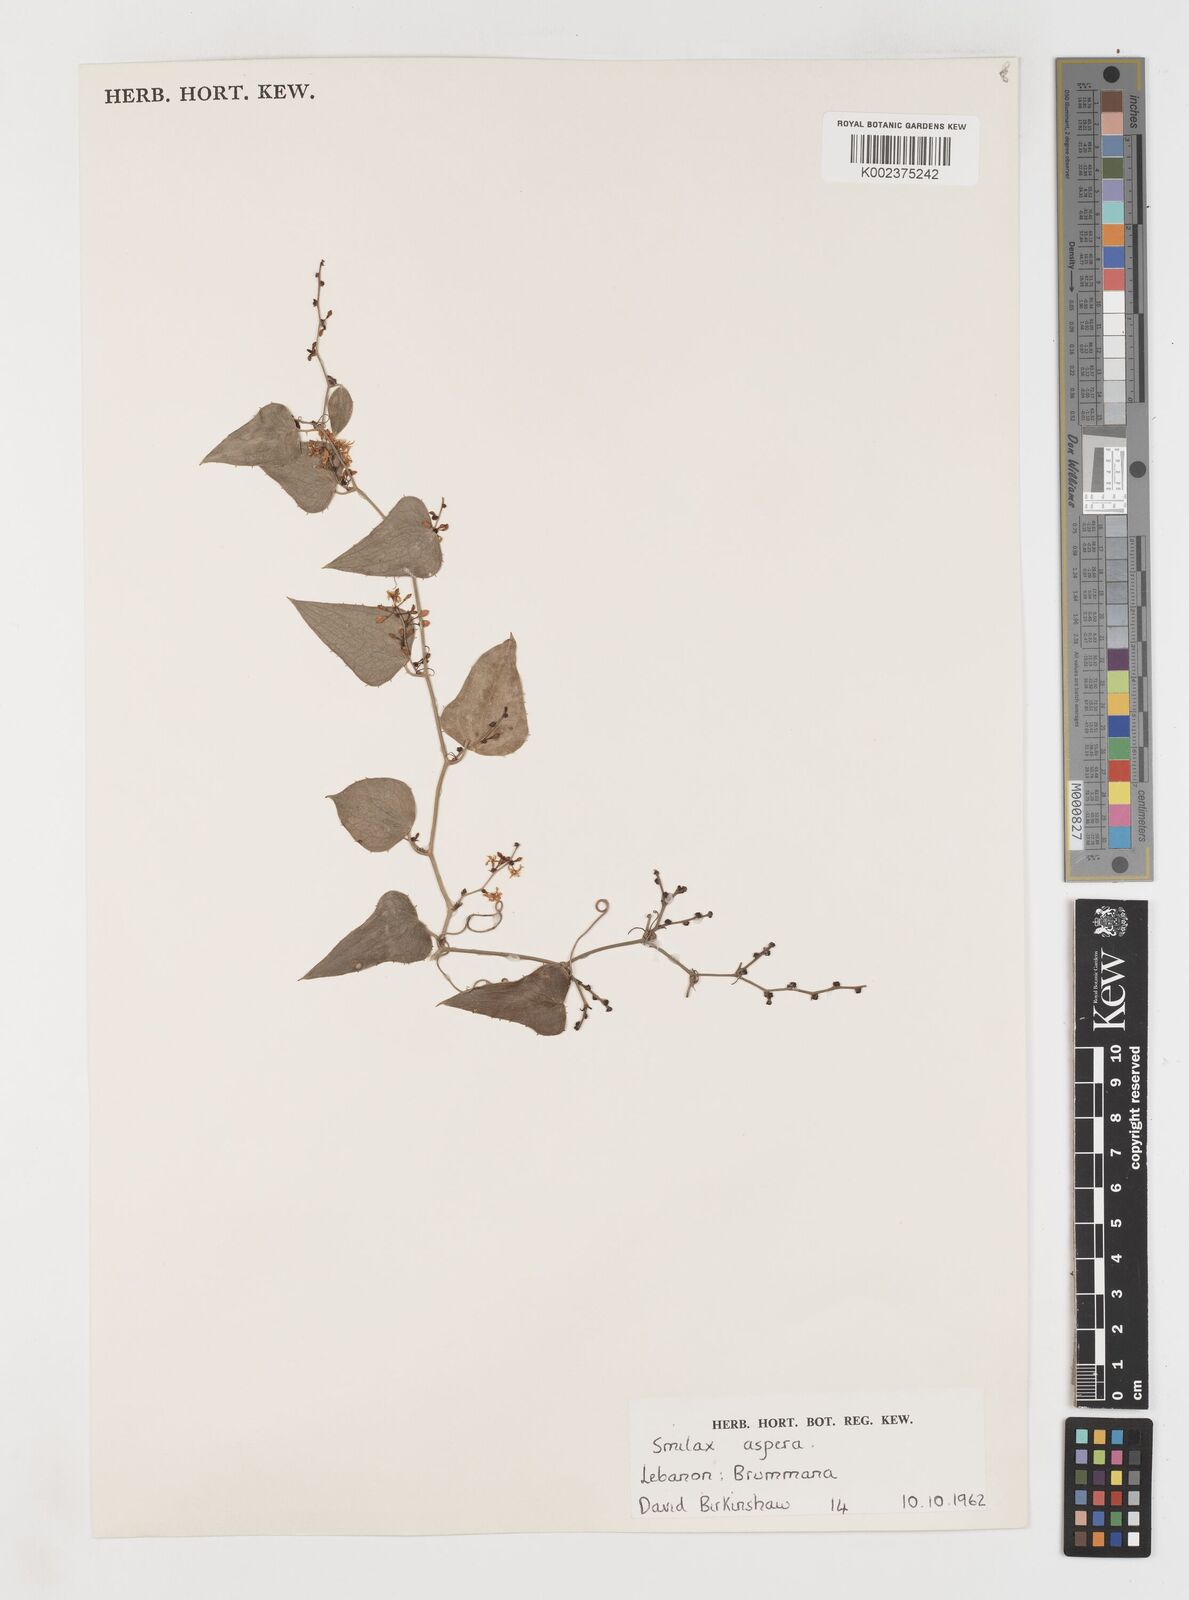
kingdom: Plantae
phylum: Tracheophyta
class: Liliopsida
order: Liliales
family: Smilacaceae
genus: Smilax
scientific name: Smilax aspera
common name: Common smilax
